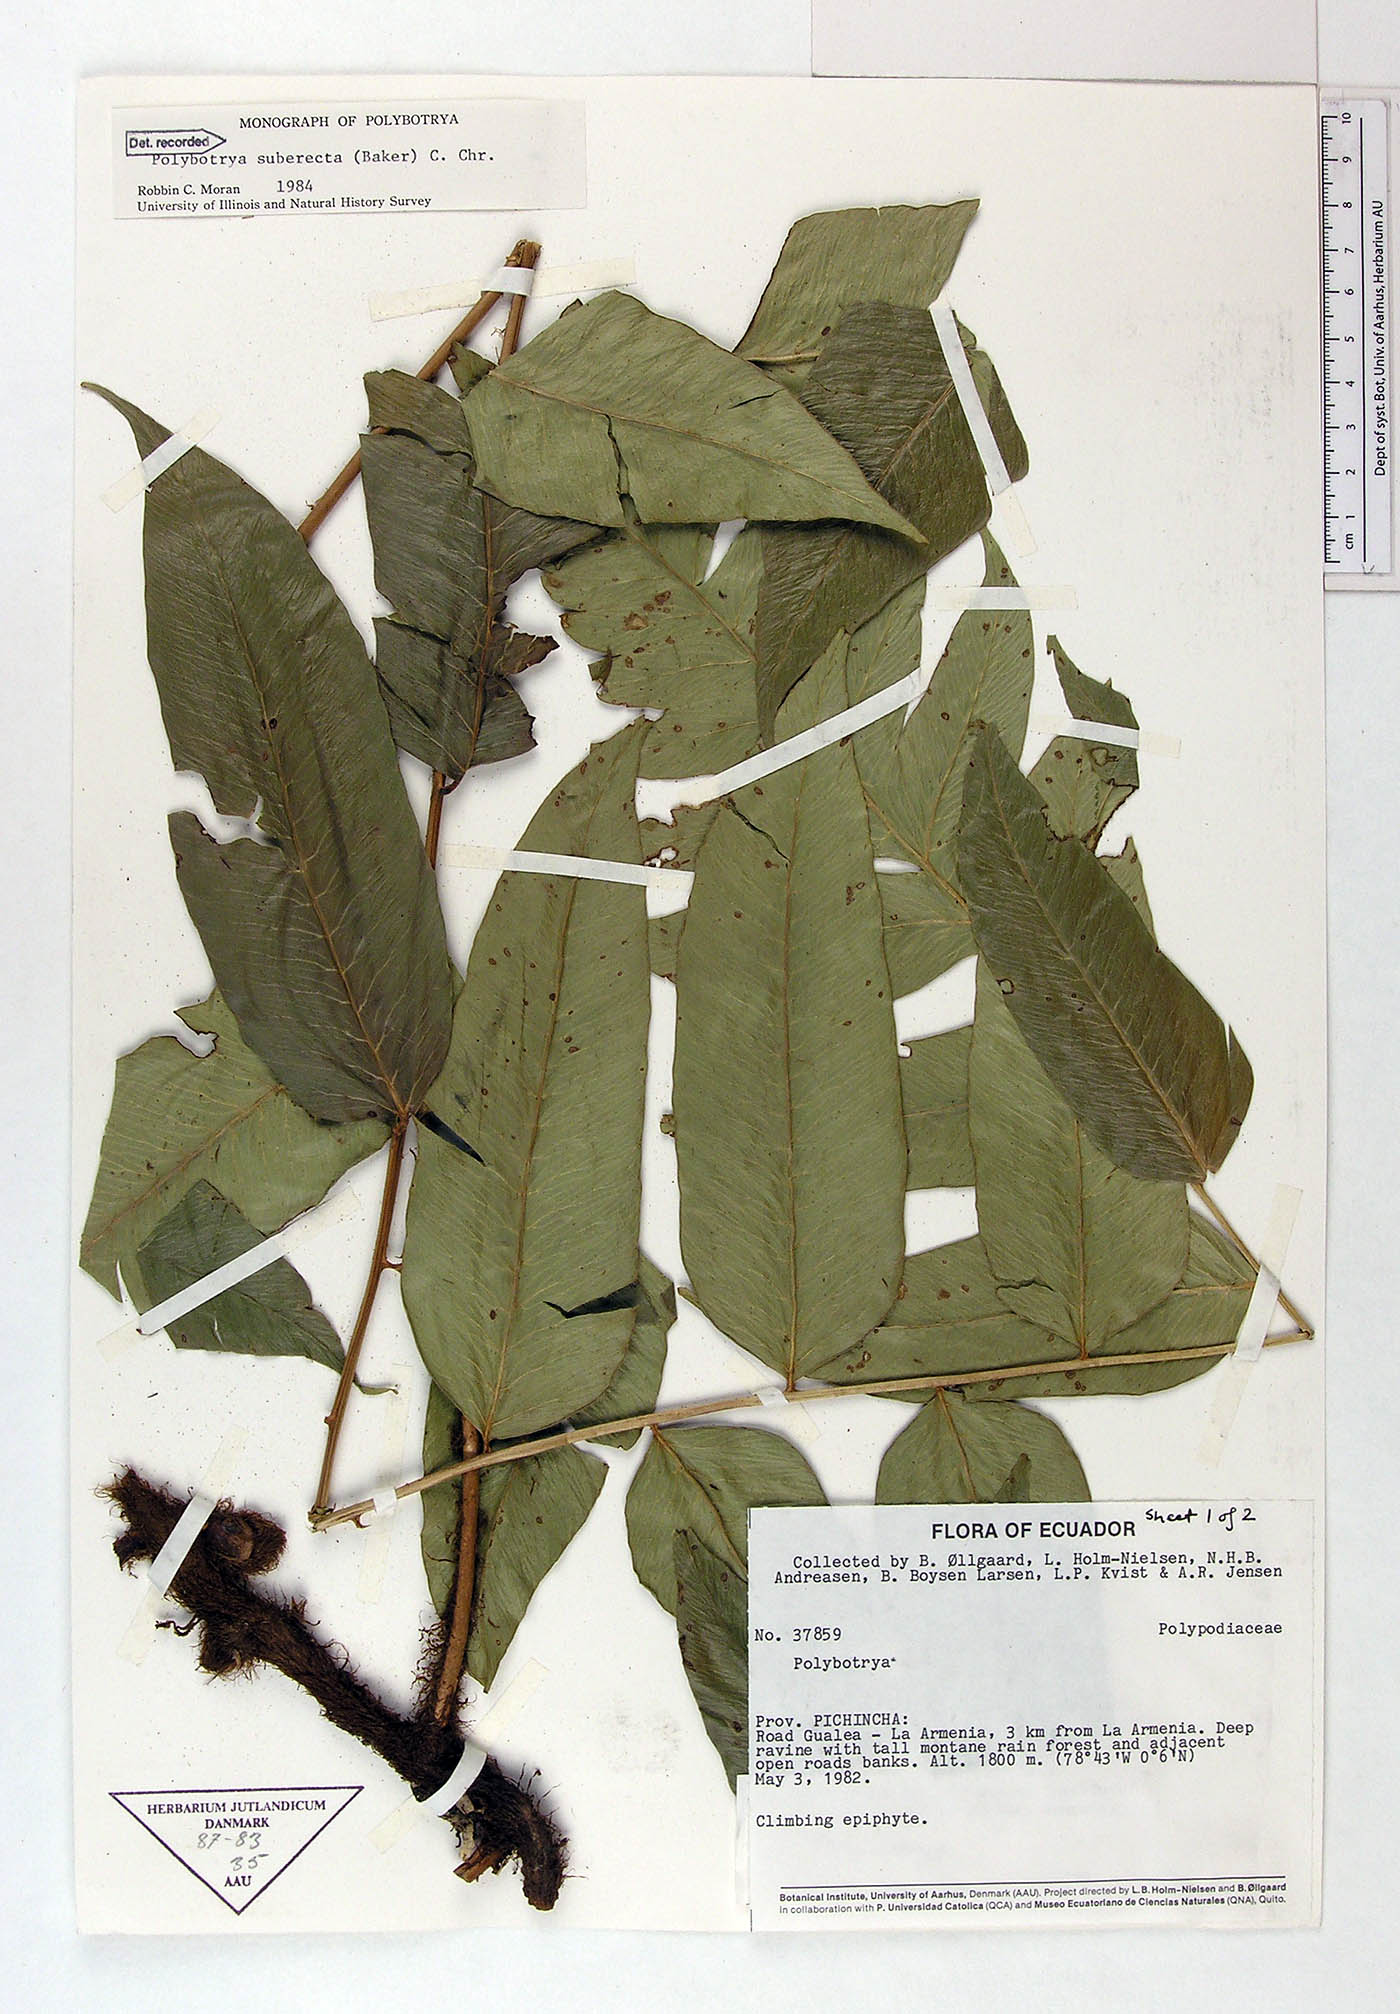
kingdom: Plantae
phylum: Tracheophyta
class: Polypodiopsida
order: Polypodiales
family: Dryopteridaceae
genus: Polybotrya
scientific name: Polybotrya suberecta
